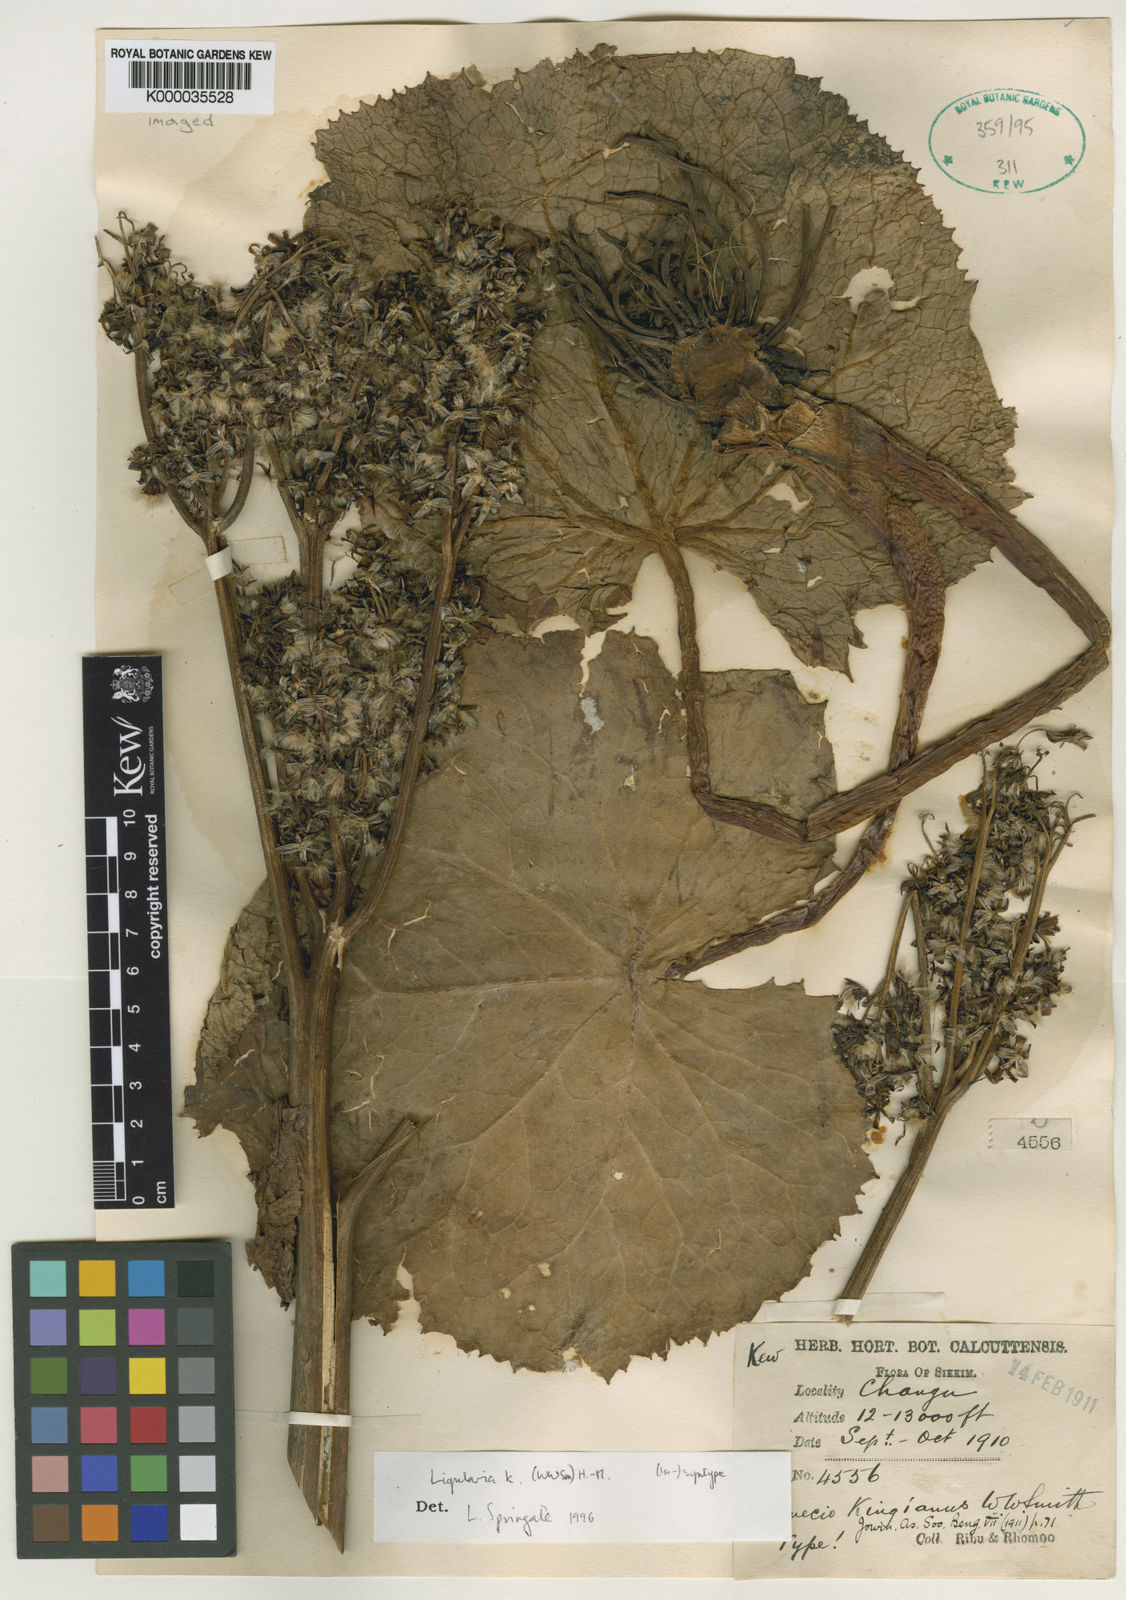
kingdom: Plantae
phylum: Tracheophyta
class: Magnoliopsida
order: Asterales
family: Asteraceae
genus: Ligularia
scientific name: Ligularia kingiana
